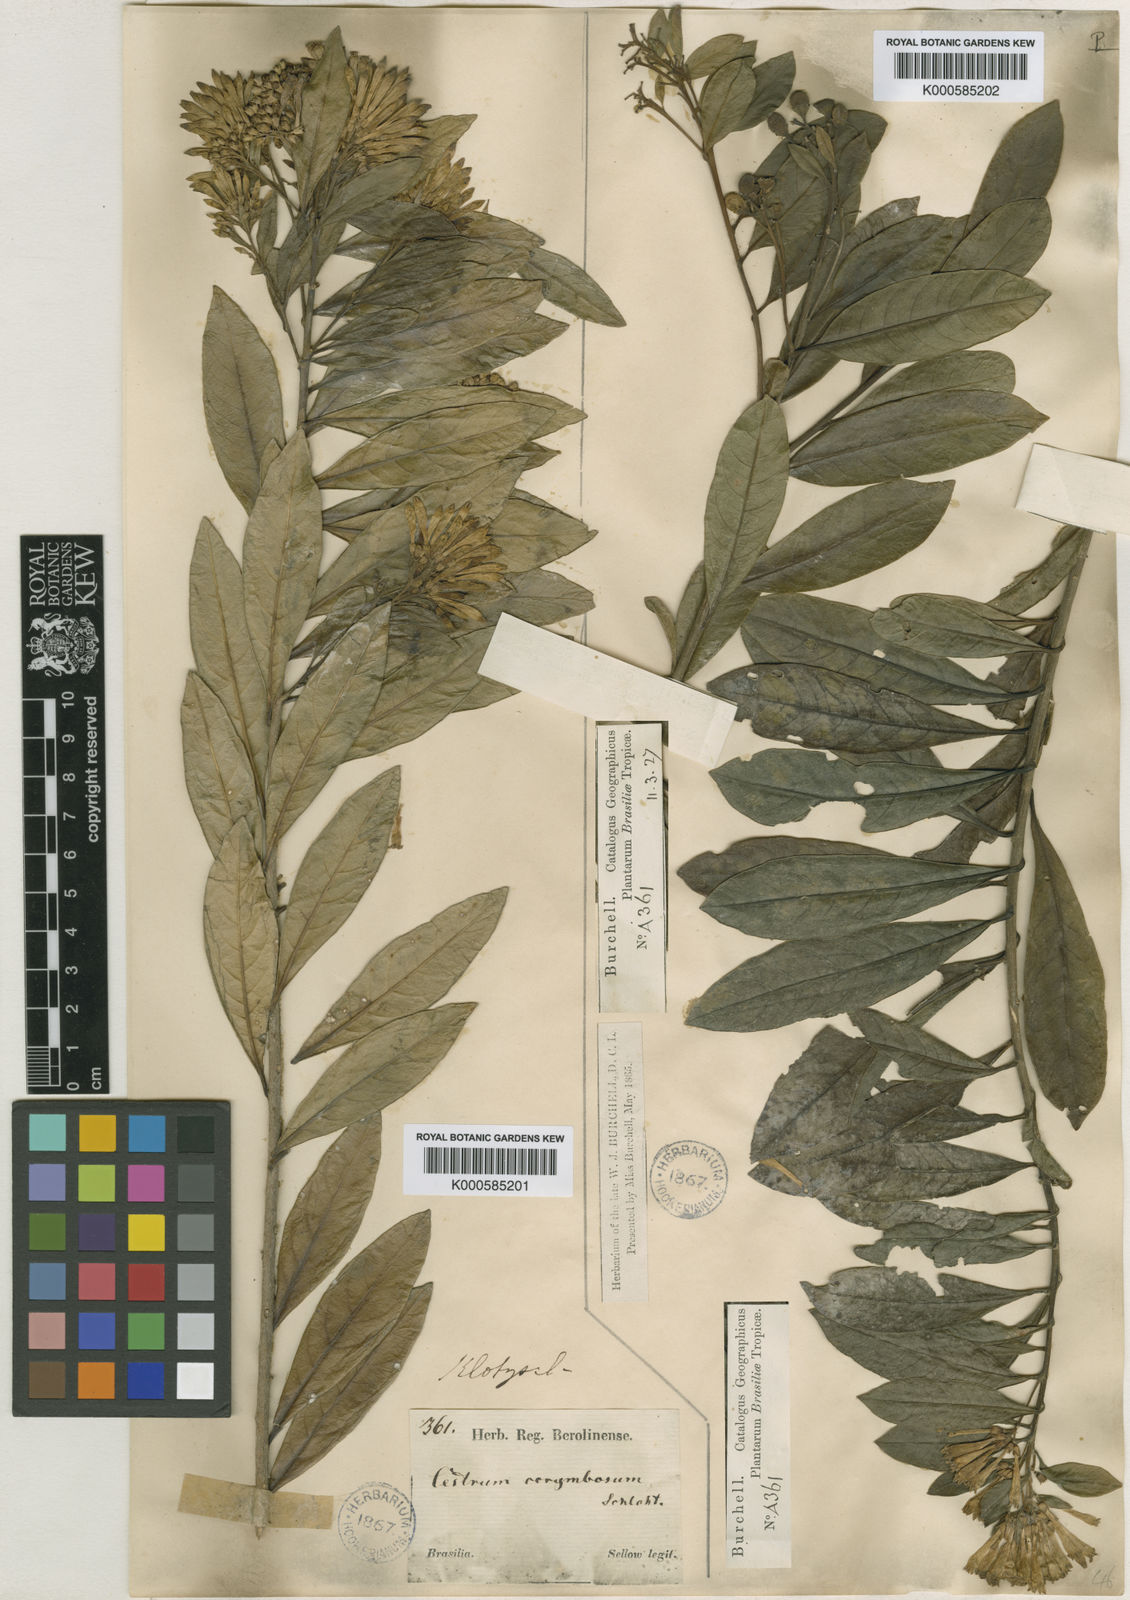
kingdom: Plantae
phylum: Tracheophyta
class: Magnoliopsida
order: Solanales
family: Solanaceae
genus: Cestrum
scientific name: Cestrum corymbosum
